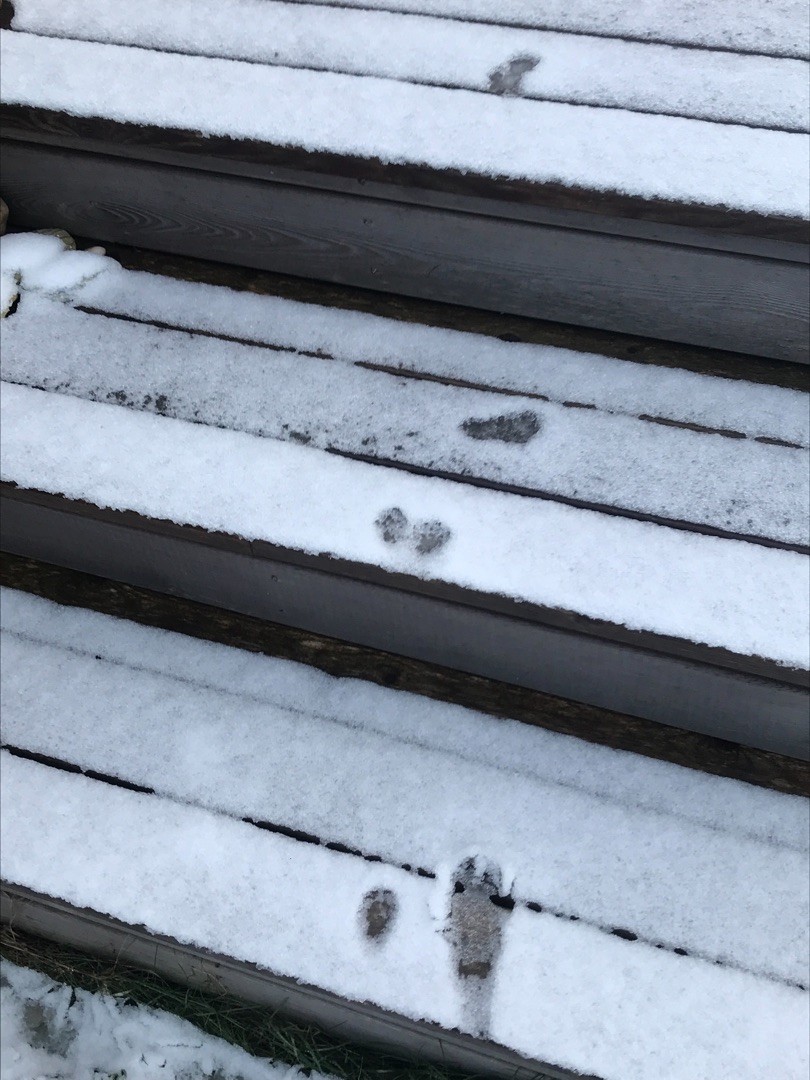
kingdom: Animalia
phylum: Chordata
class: Mammalia
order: Carnivora
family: Mustelidae
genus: Martes
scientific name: Martes foina
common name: Husmår
